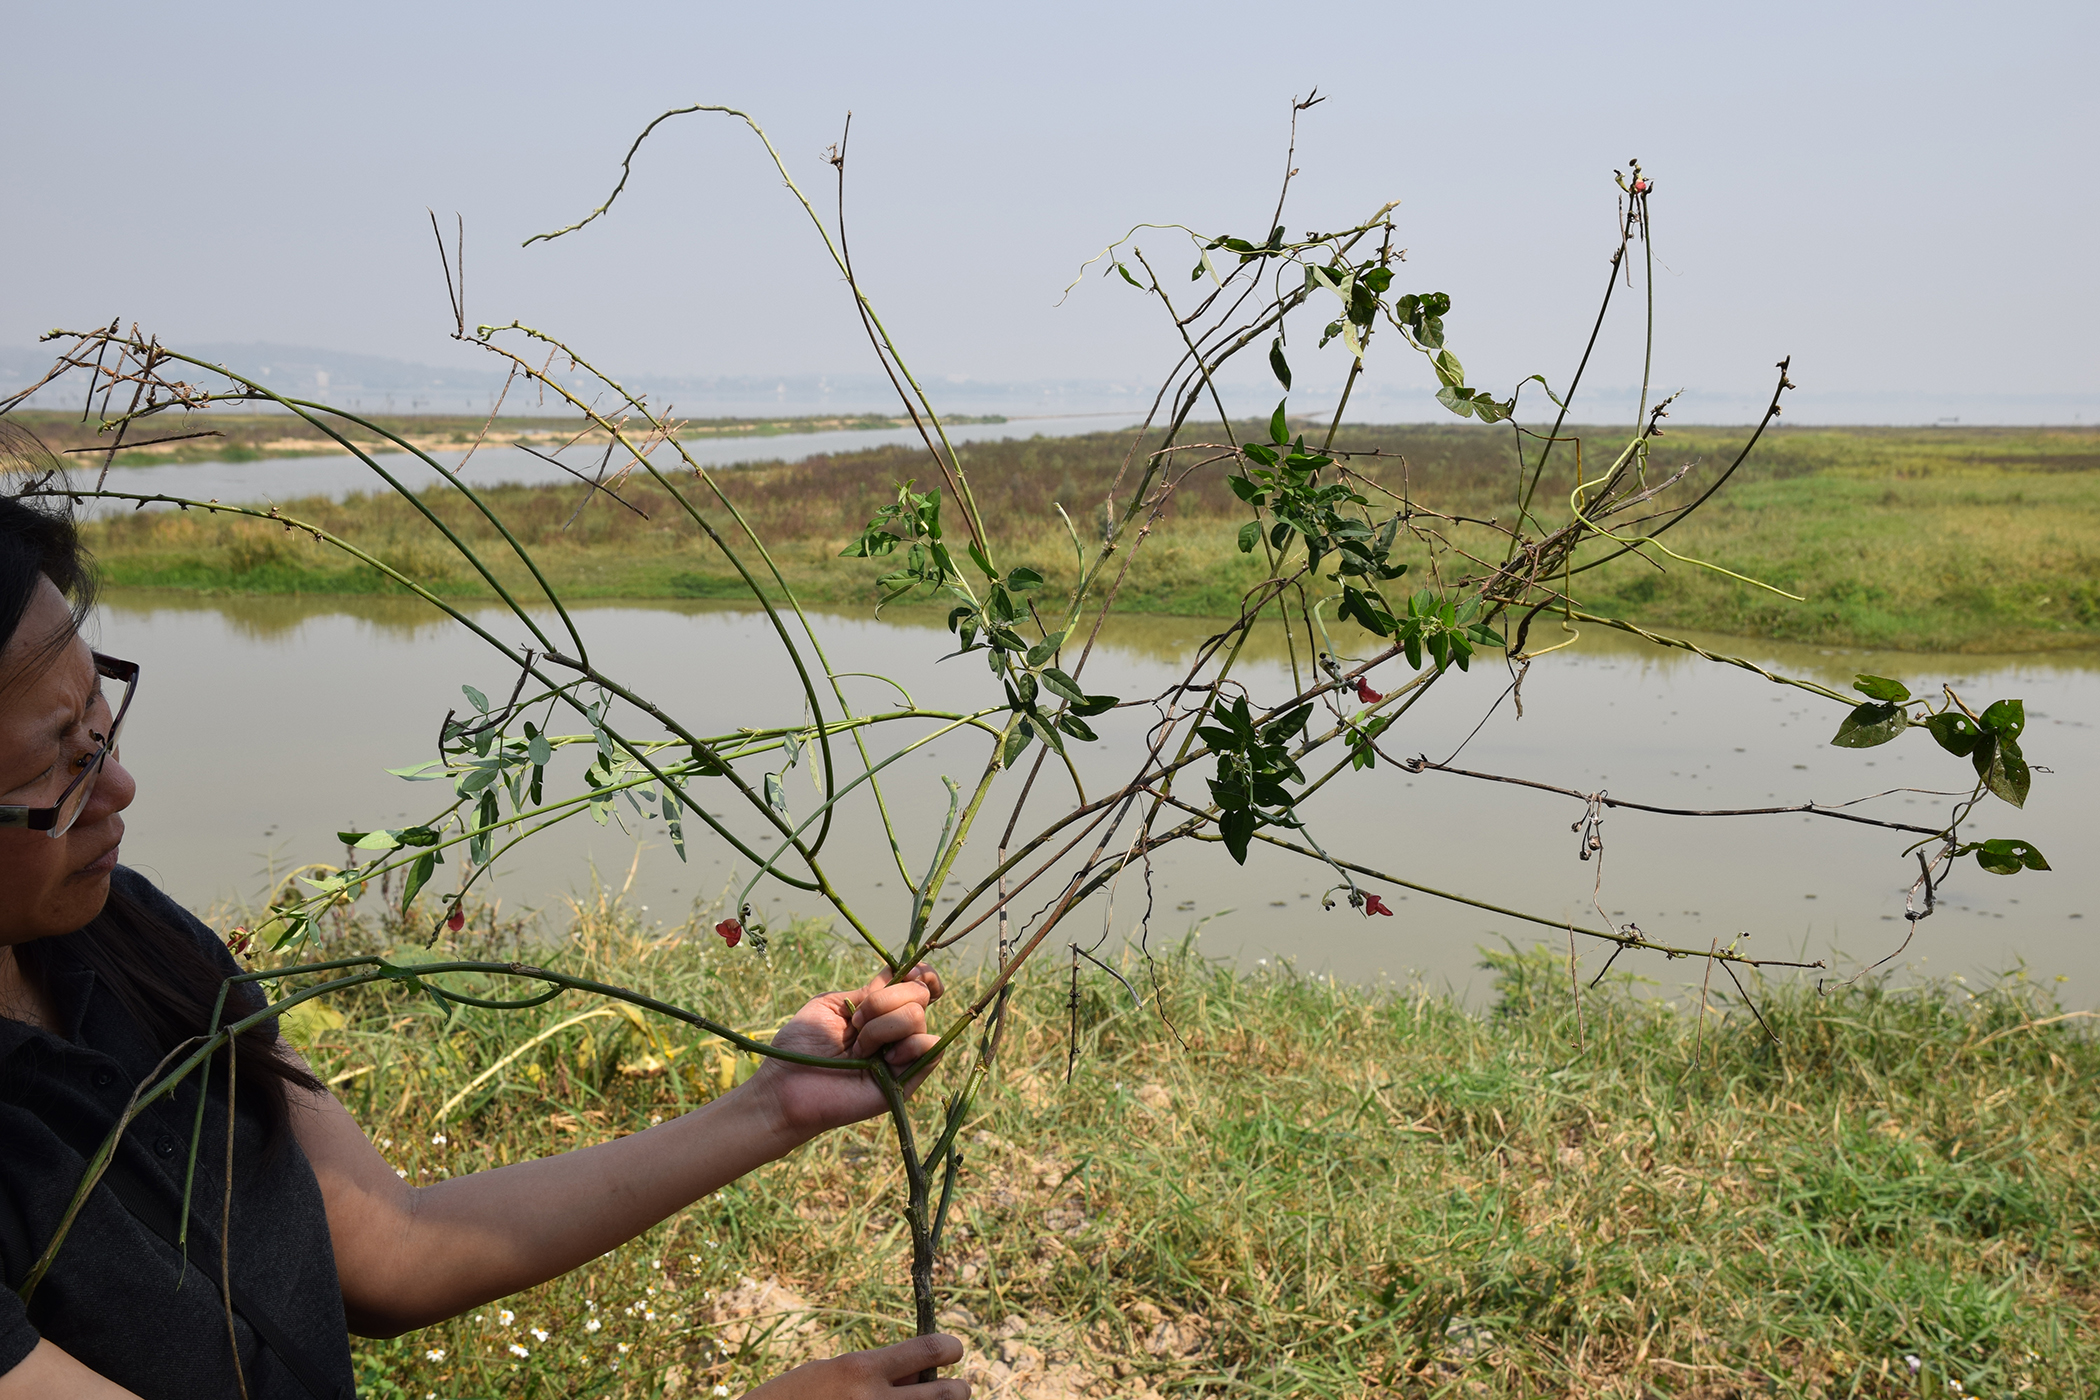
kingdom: Plantae
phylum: Tracheophyta
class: Magnoliopsida
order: Fabales
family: Fabaceae
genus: Macroptilium
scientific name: Macroptilium lathyroides
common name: Wild bushbean
